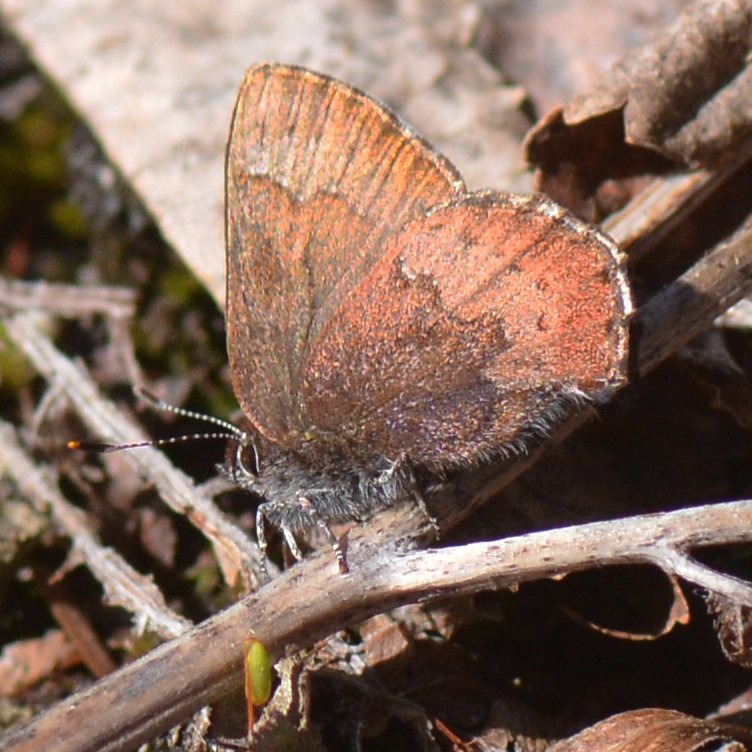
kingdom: Animalia
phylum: Arthropoda
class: Insecta
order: Lepidoptera
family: Lycaenidae
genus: Incisalia
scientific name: Incisalia irioides
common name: Brown Elfin
